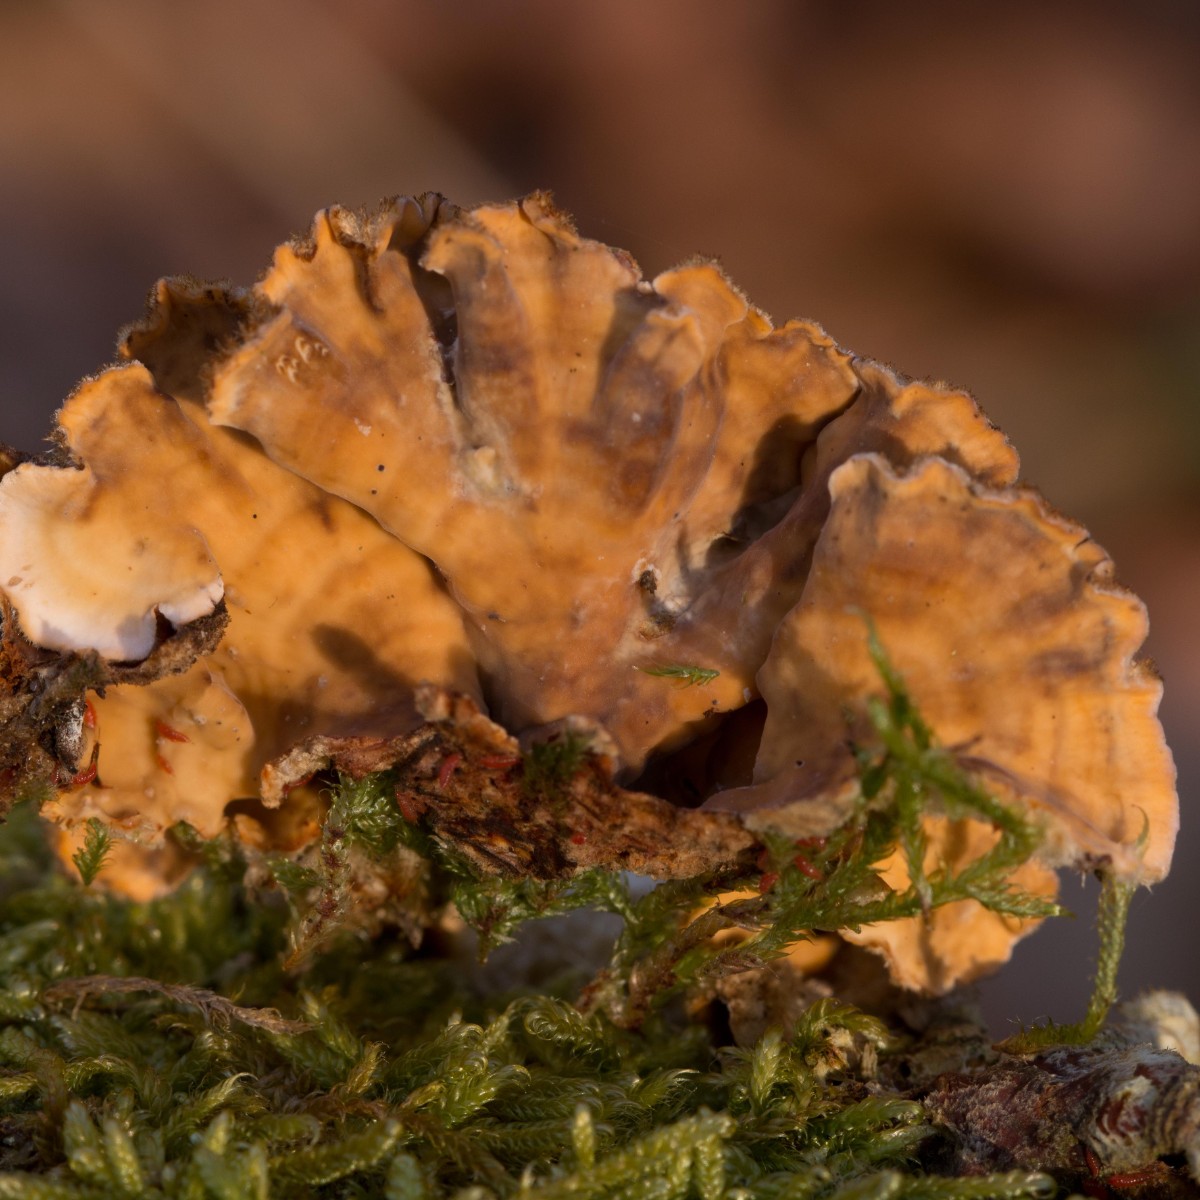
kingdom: Fungi
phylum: Basidiomycota
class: Agaricomycetes
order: Russulales
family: Stereaceae
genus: Stereum
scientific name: Stereum hirsutum
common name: håret lædersvamp
